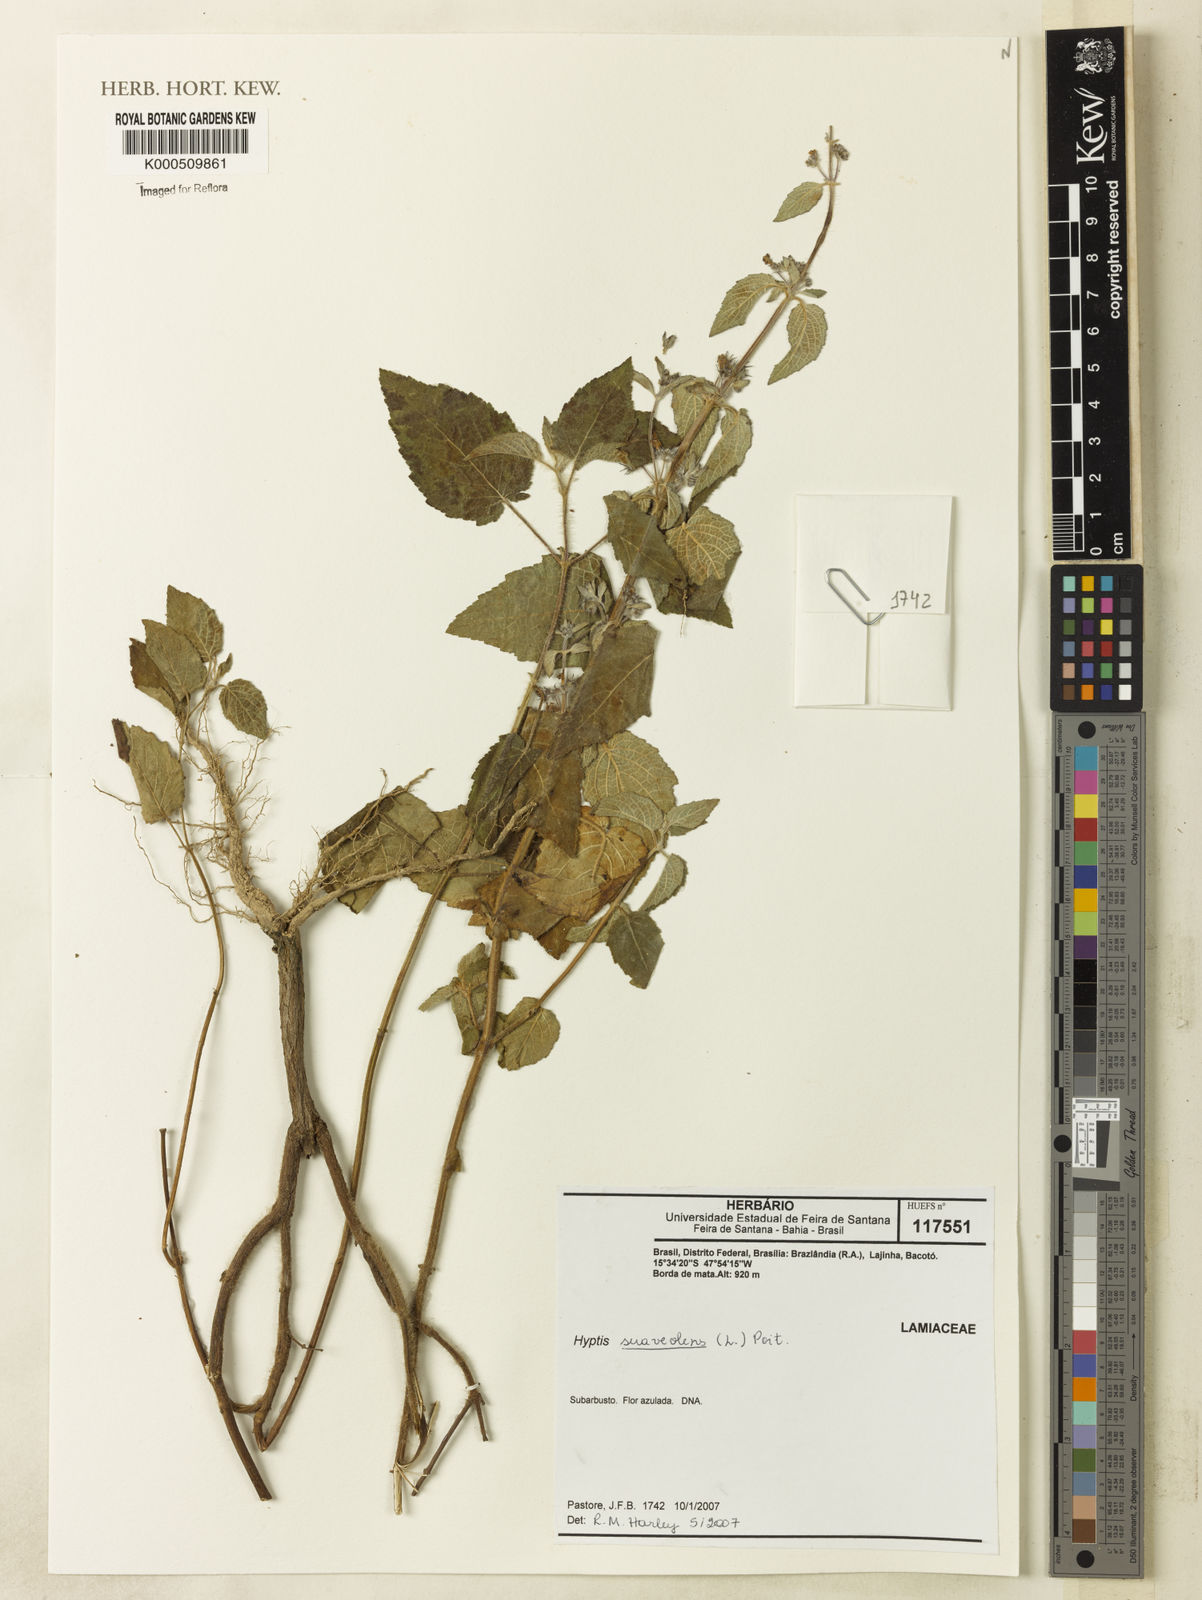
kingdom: Plantae
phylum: Tracheophyta
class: Magnoliopsida
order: Lamiales
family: Lamiaceae
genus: Mesosphaerum
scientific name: Mesosphaerum suaveolens
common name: Pignut
